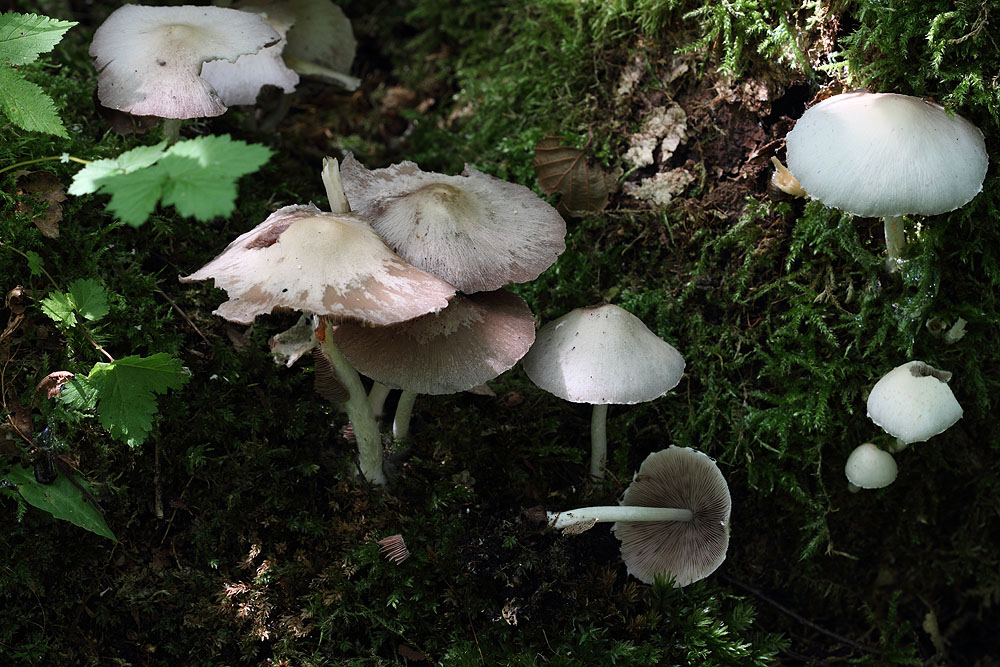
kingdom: Fungi
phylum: Basidiomycota
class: Agaricomycetes
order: Agaricales
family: Psathyrellaceae
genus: Candolleomyces
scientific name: Candolleomyces candolleanus
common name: Candolles mørkhat
